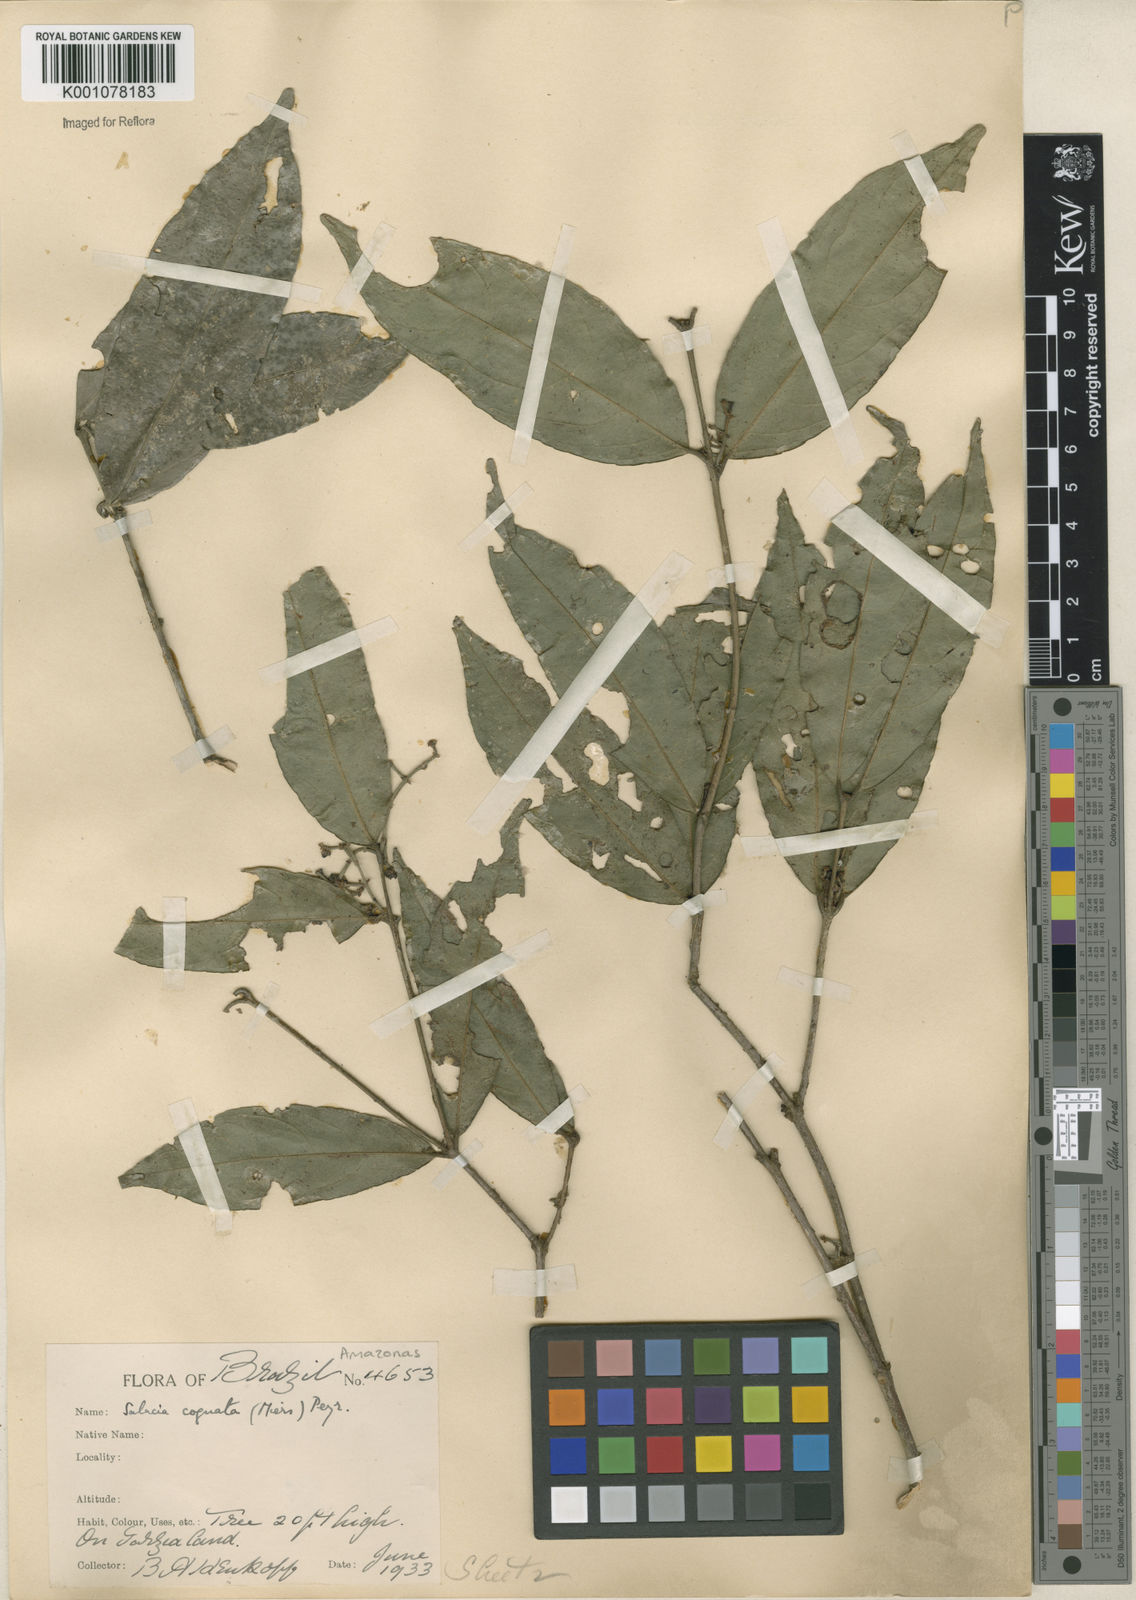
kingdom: Plantae
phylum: Tracheophyta
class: Magnoliopsida
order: Celastrales
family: Celastraceae
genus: Cheiloclinium
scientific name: Cheiloclinium cognatum
